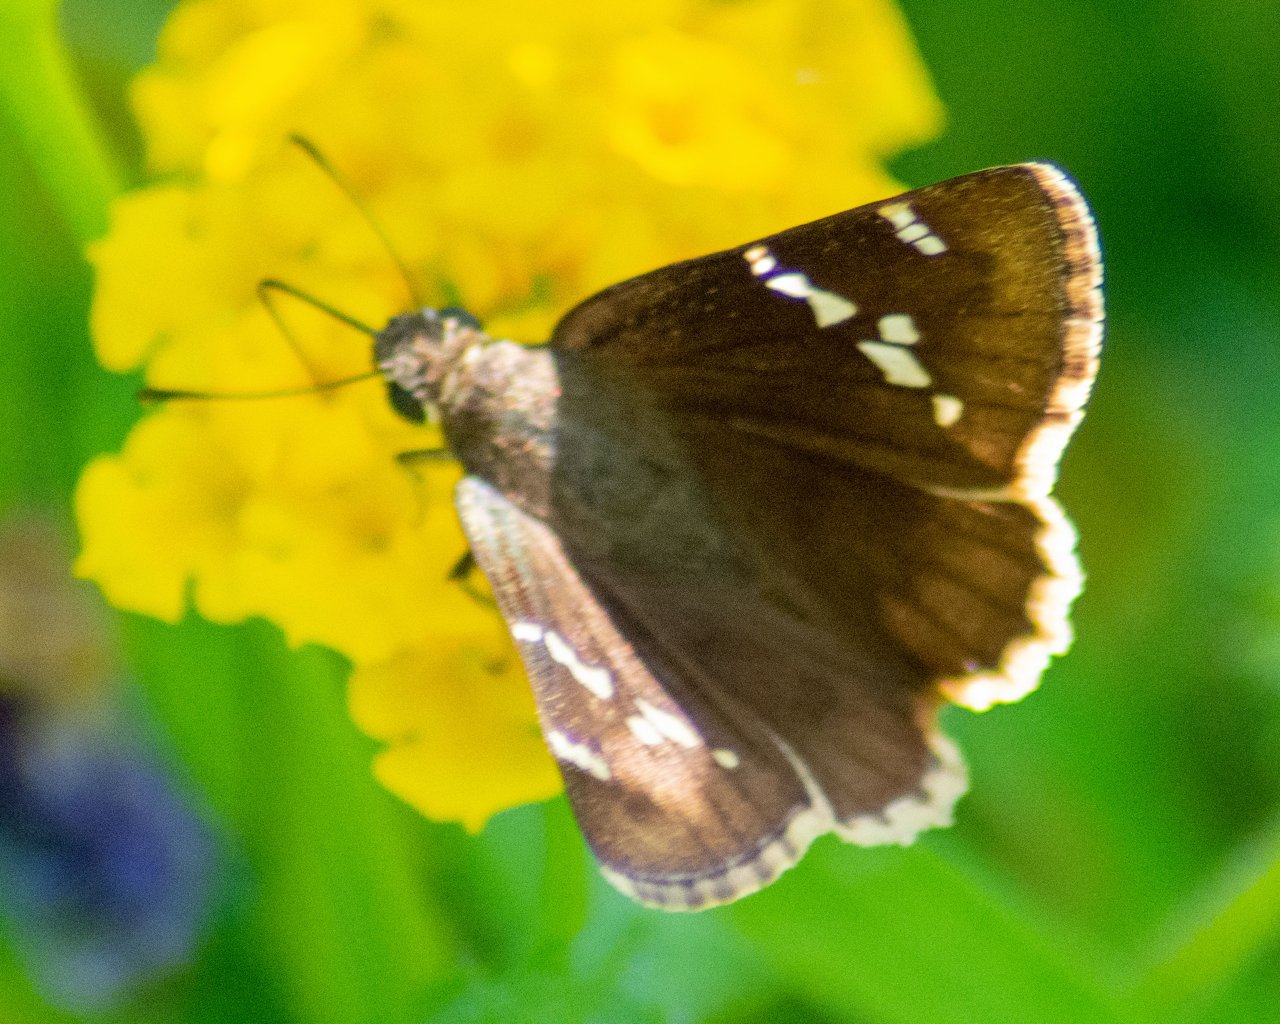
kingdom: Animalia
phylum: Arthropoda
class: Insecta
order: Lepidoptera
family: Hesperiidae
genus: Autochton
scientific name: Autochton
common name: Southern Cloudywing
